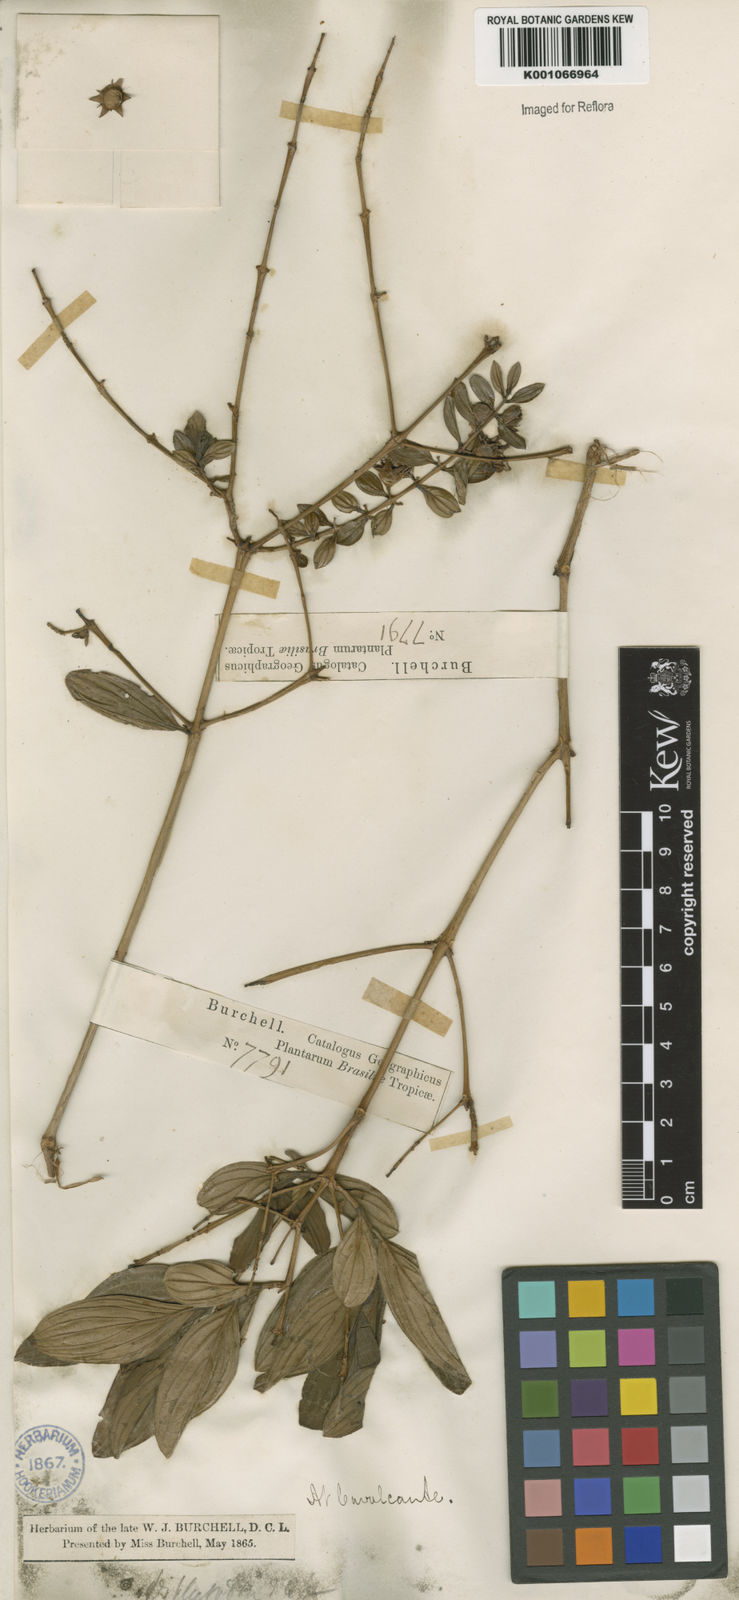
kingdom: Plantae
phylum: Tracheophyta
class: Magnoliopsida
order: Myrtales
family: Lythraceae
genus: Diplusodon
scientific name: Diplusodon ramosissimus
